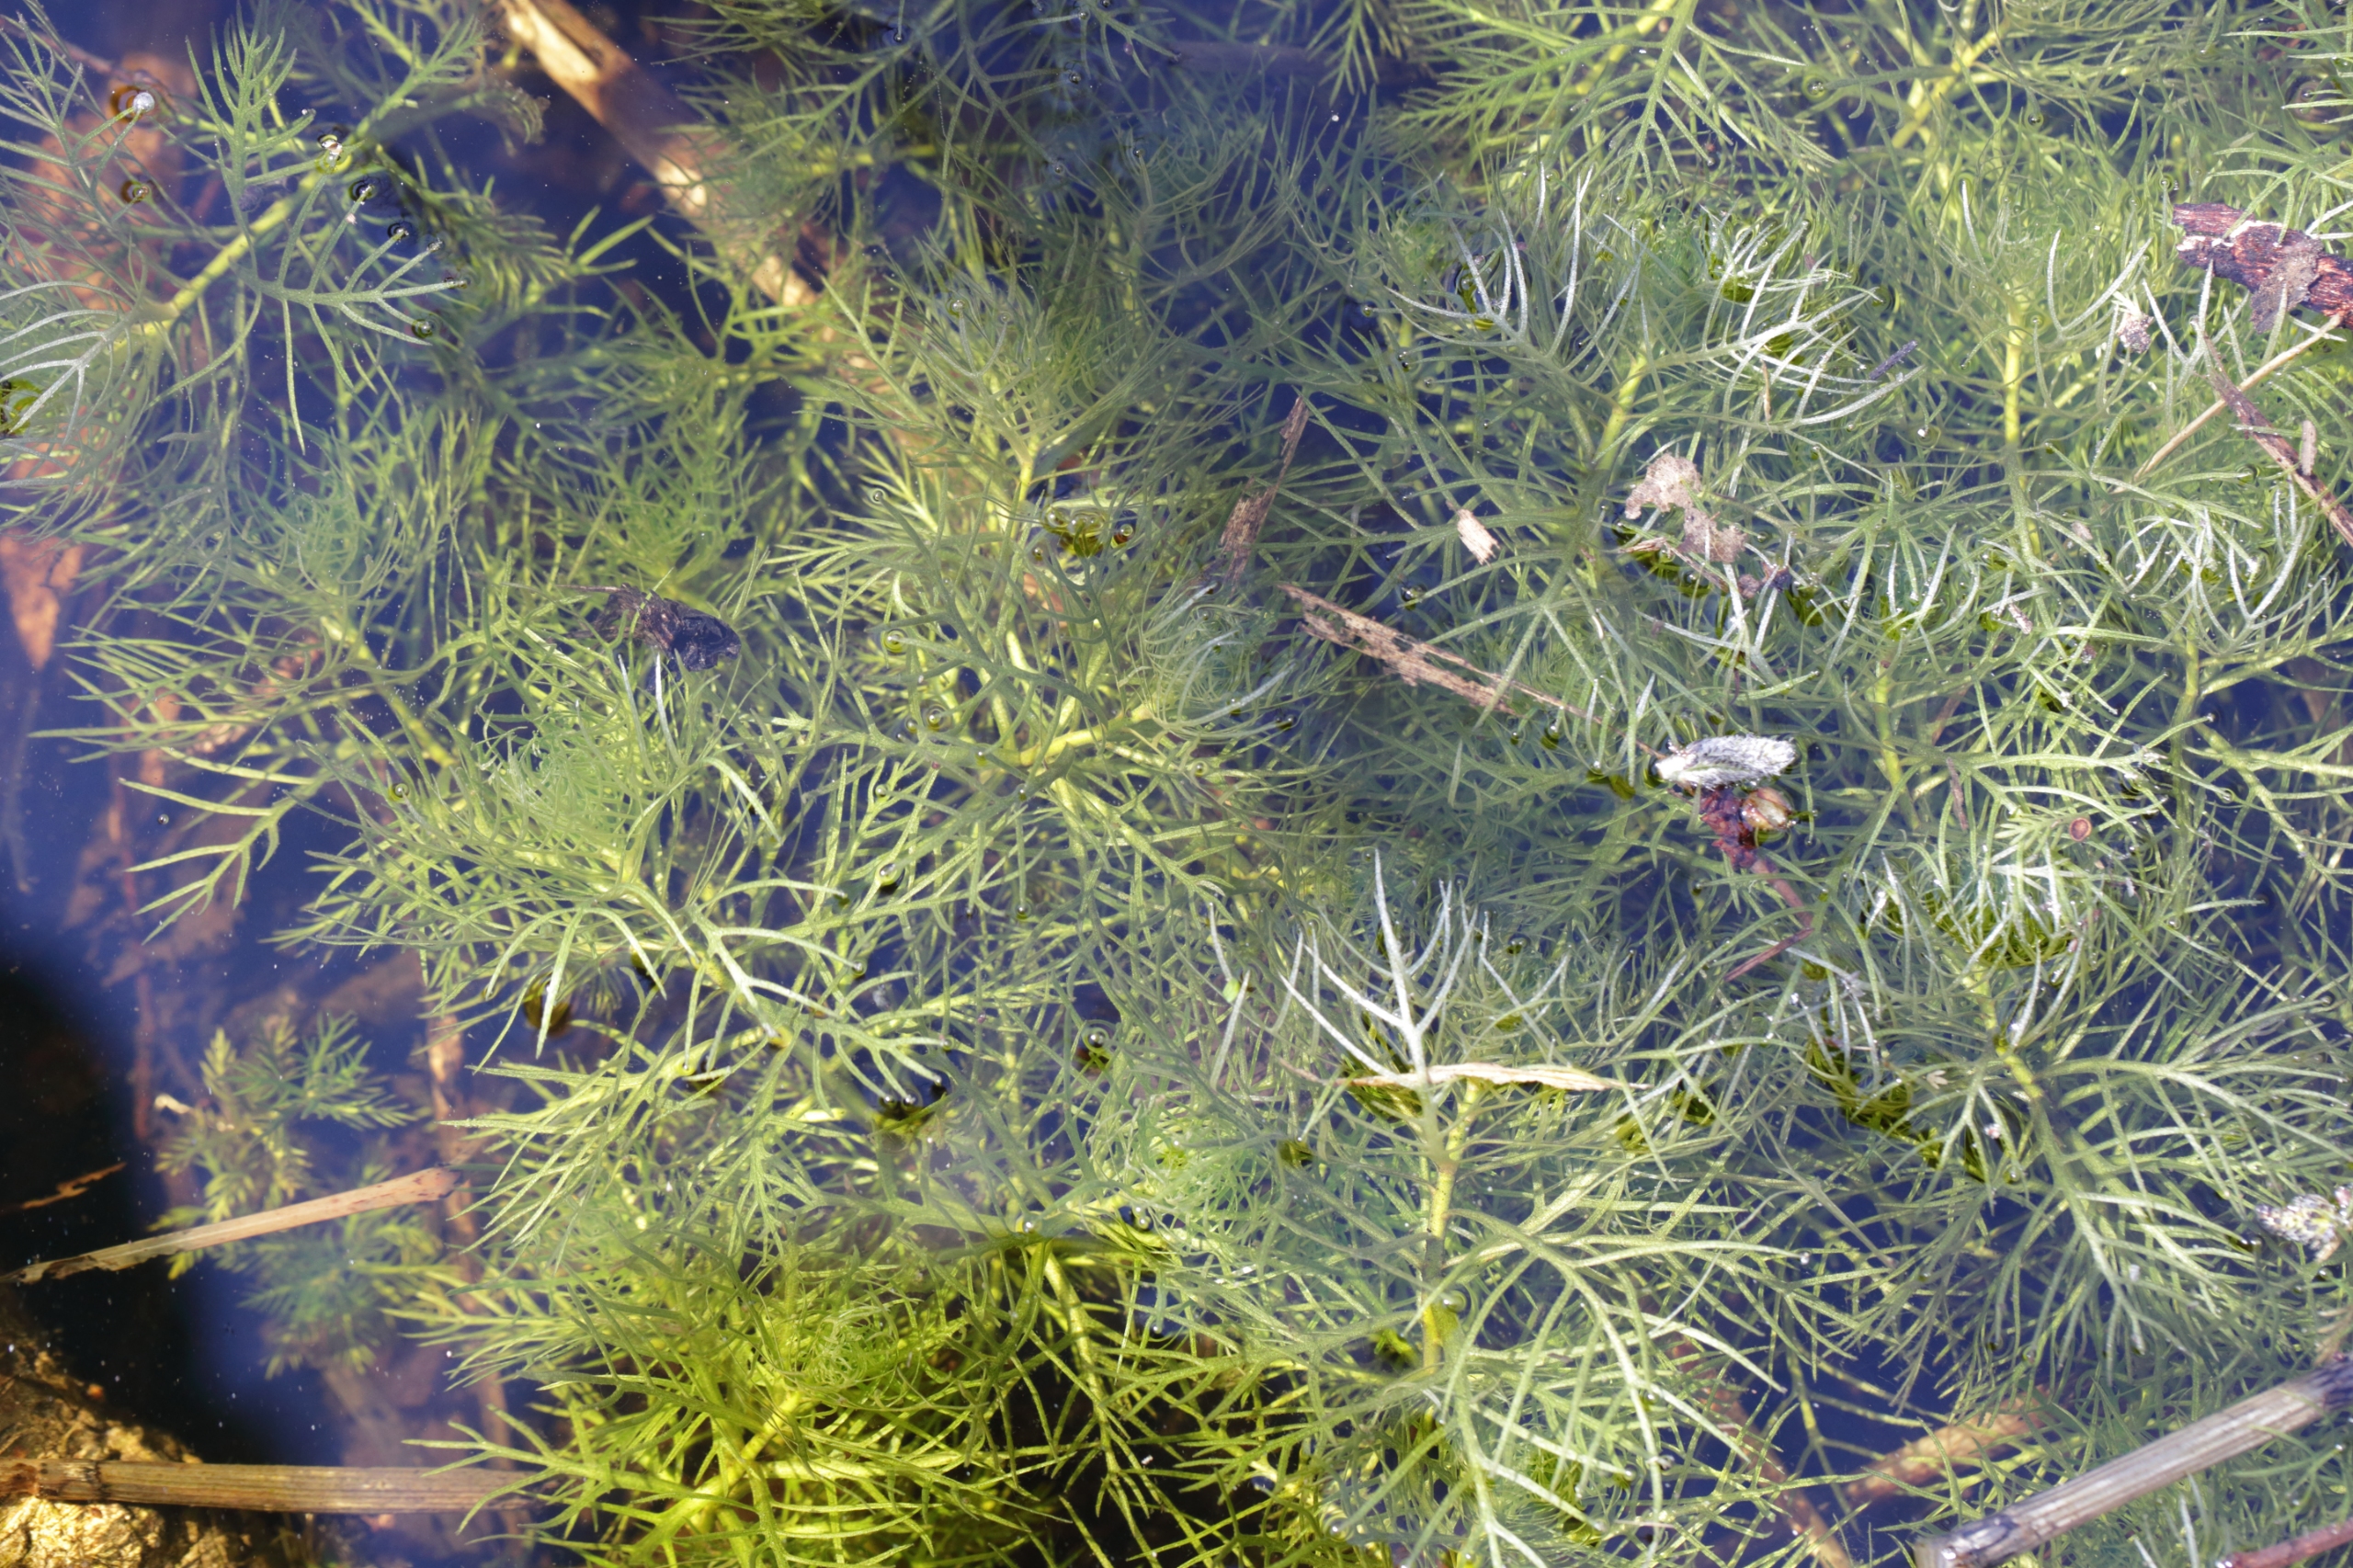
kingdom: Plantae
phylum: Tracheophyta
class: Magnoliopsida
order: Ericales
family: Primulaceae
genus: Hottonia
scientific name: Hottonia palustris
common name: Vandrøllike
